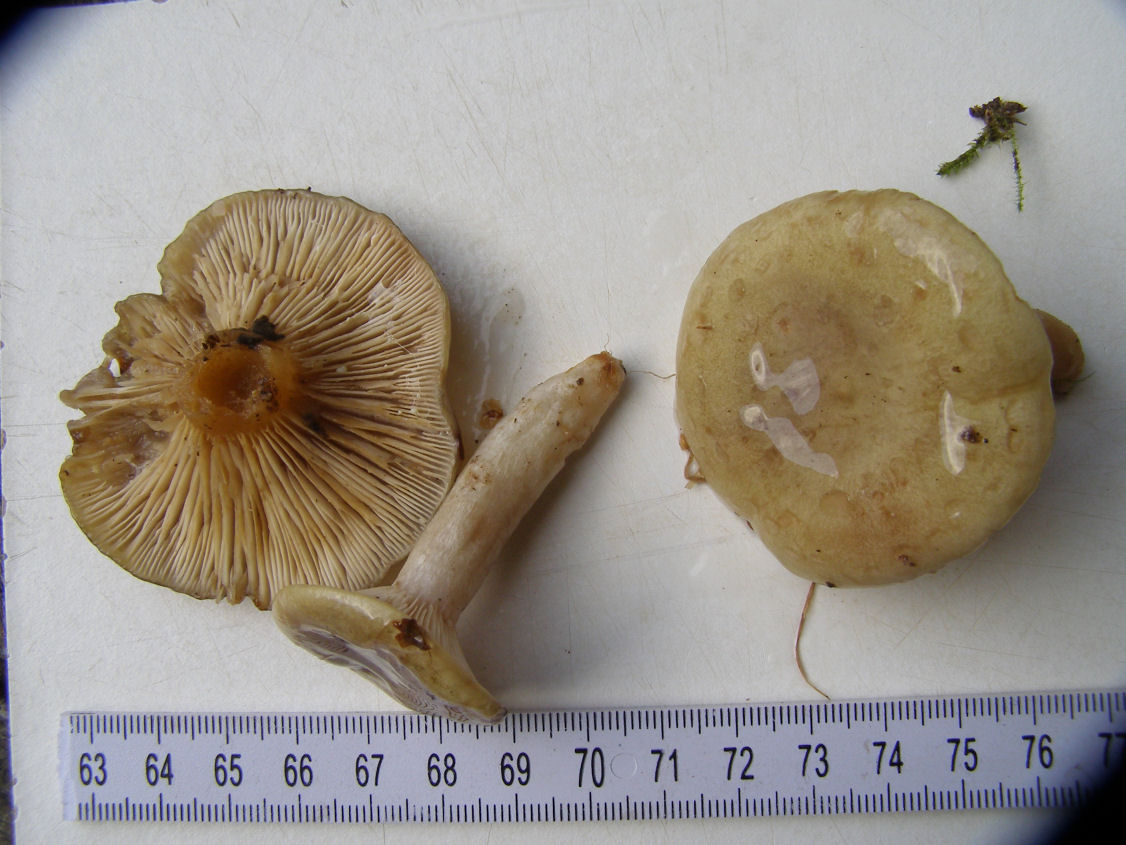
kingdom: Fungi
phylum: Basidiomycota
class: Agaricomycetes
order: Russulales
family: Russulaceae
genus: Lactarius
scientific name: Lactarius blennius
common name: dråbeplettet mælkehat
